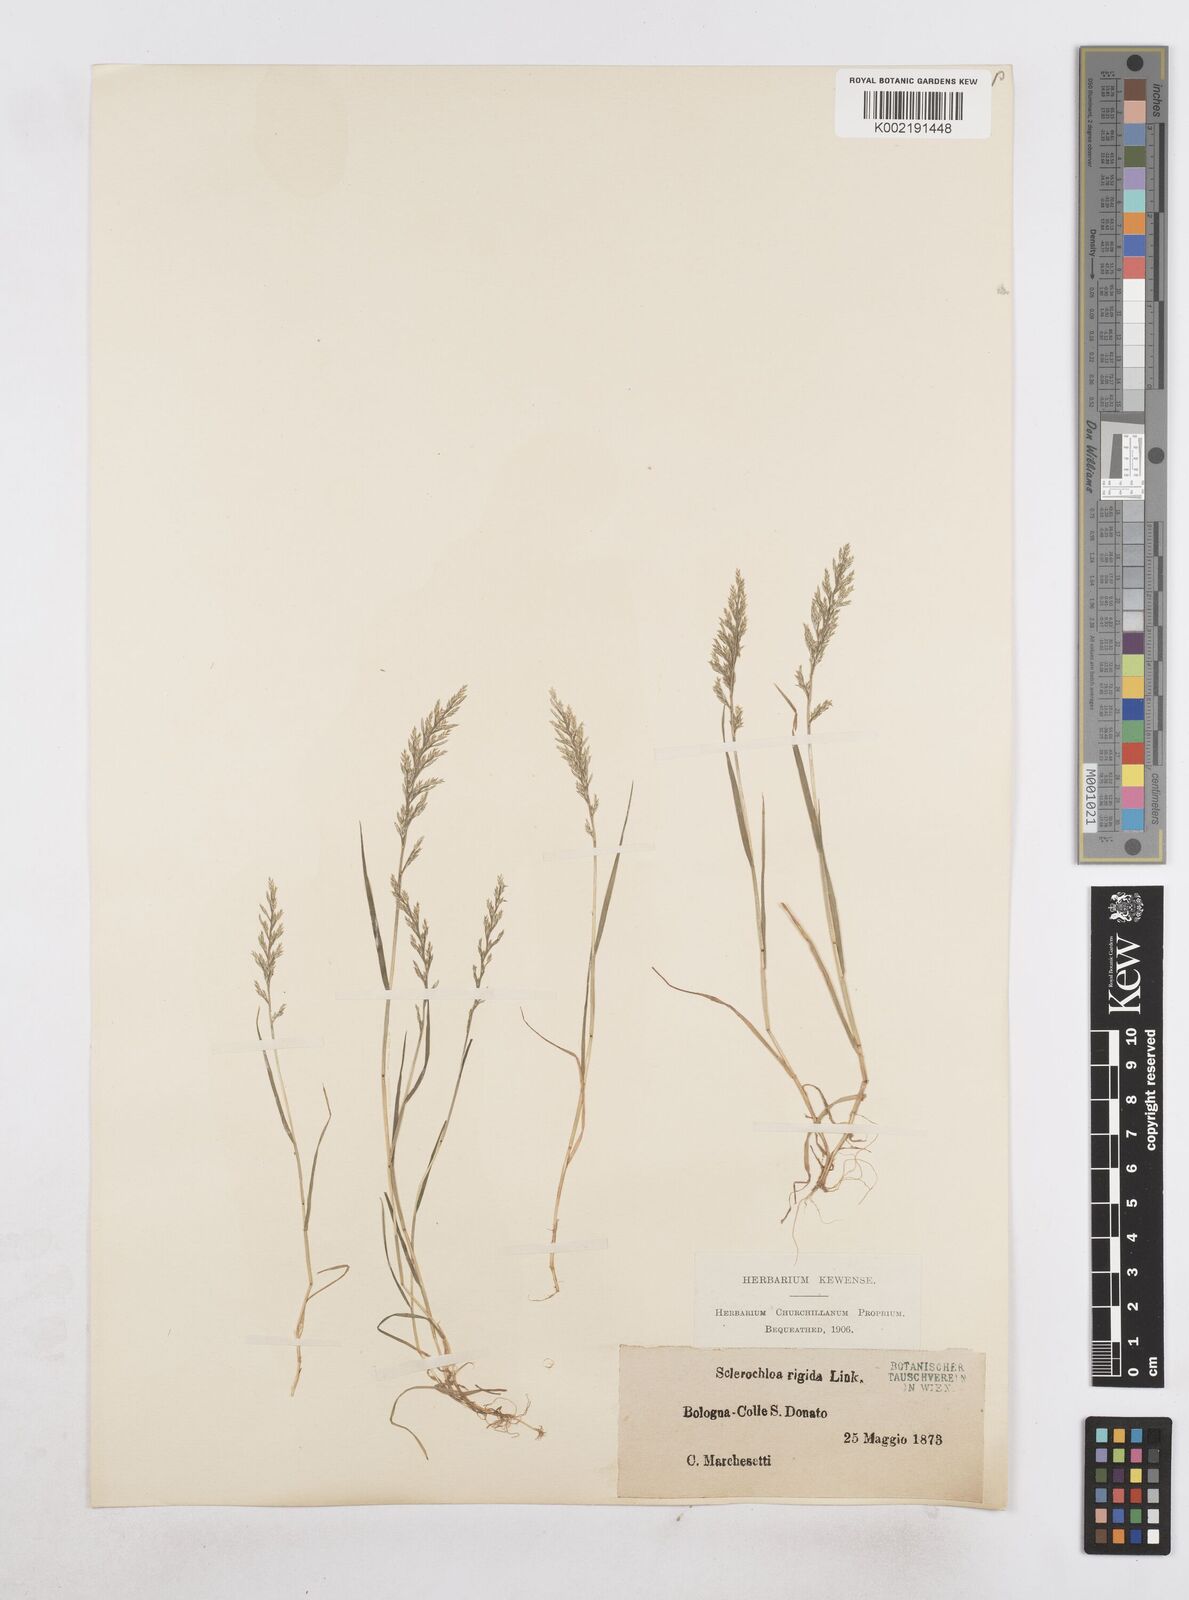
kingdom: Plantae
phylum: Tracheophyta
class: Liliopsida
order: Poales
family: Poaceae
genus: Catapodium
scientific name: Catapodium rigidum
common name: Fern-grass
